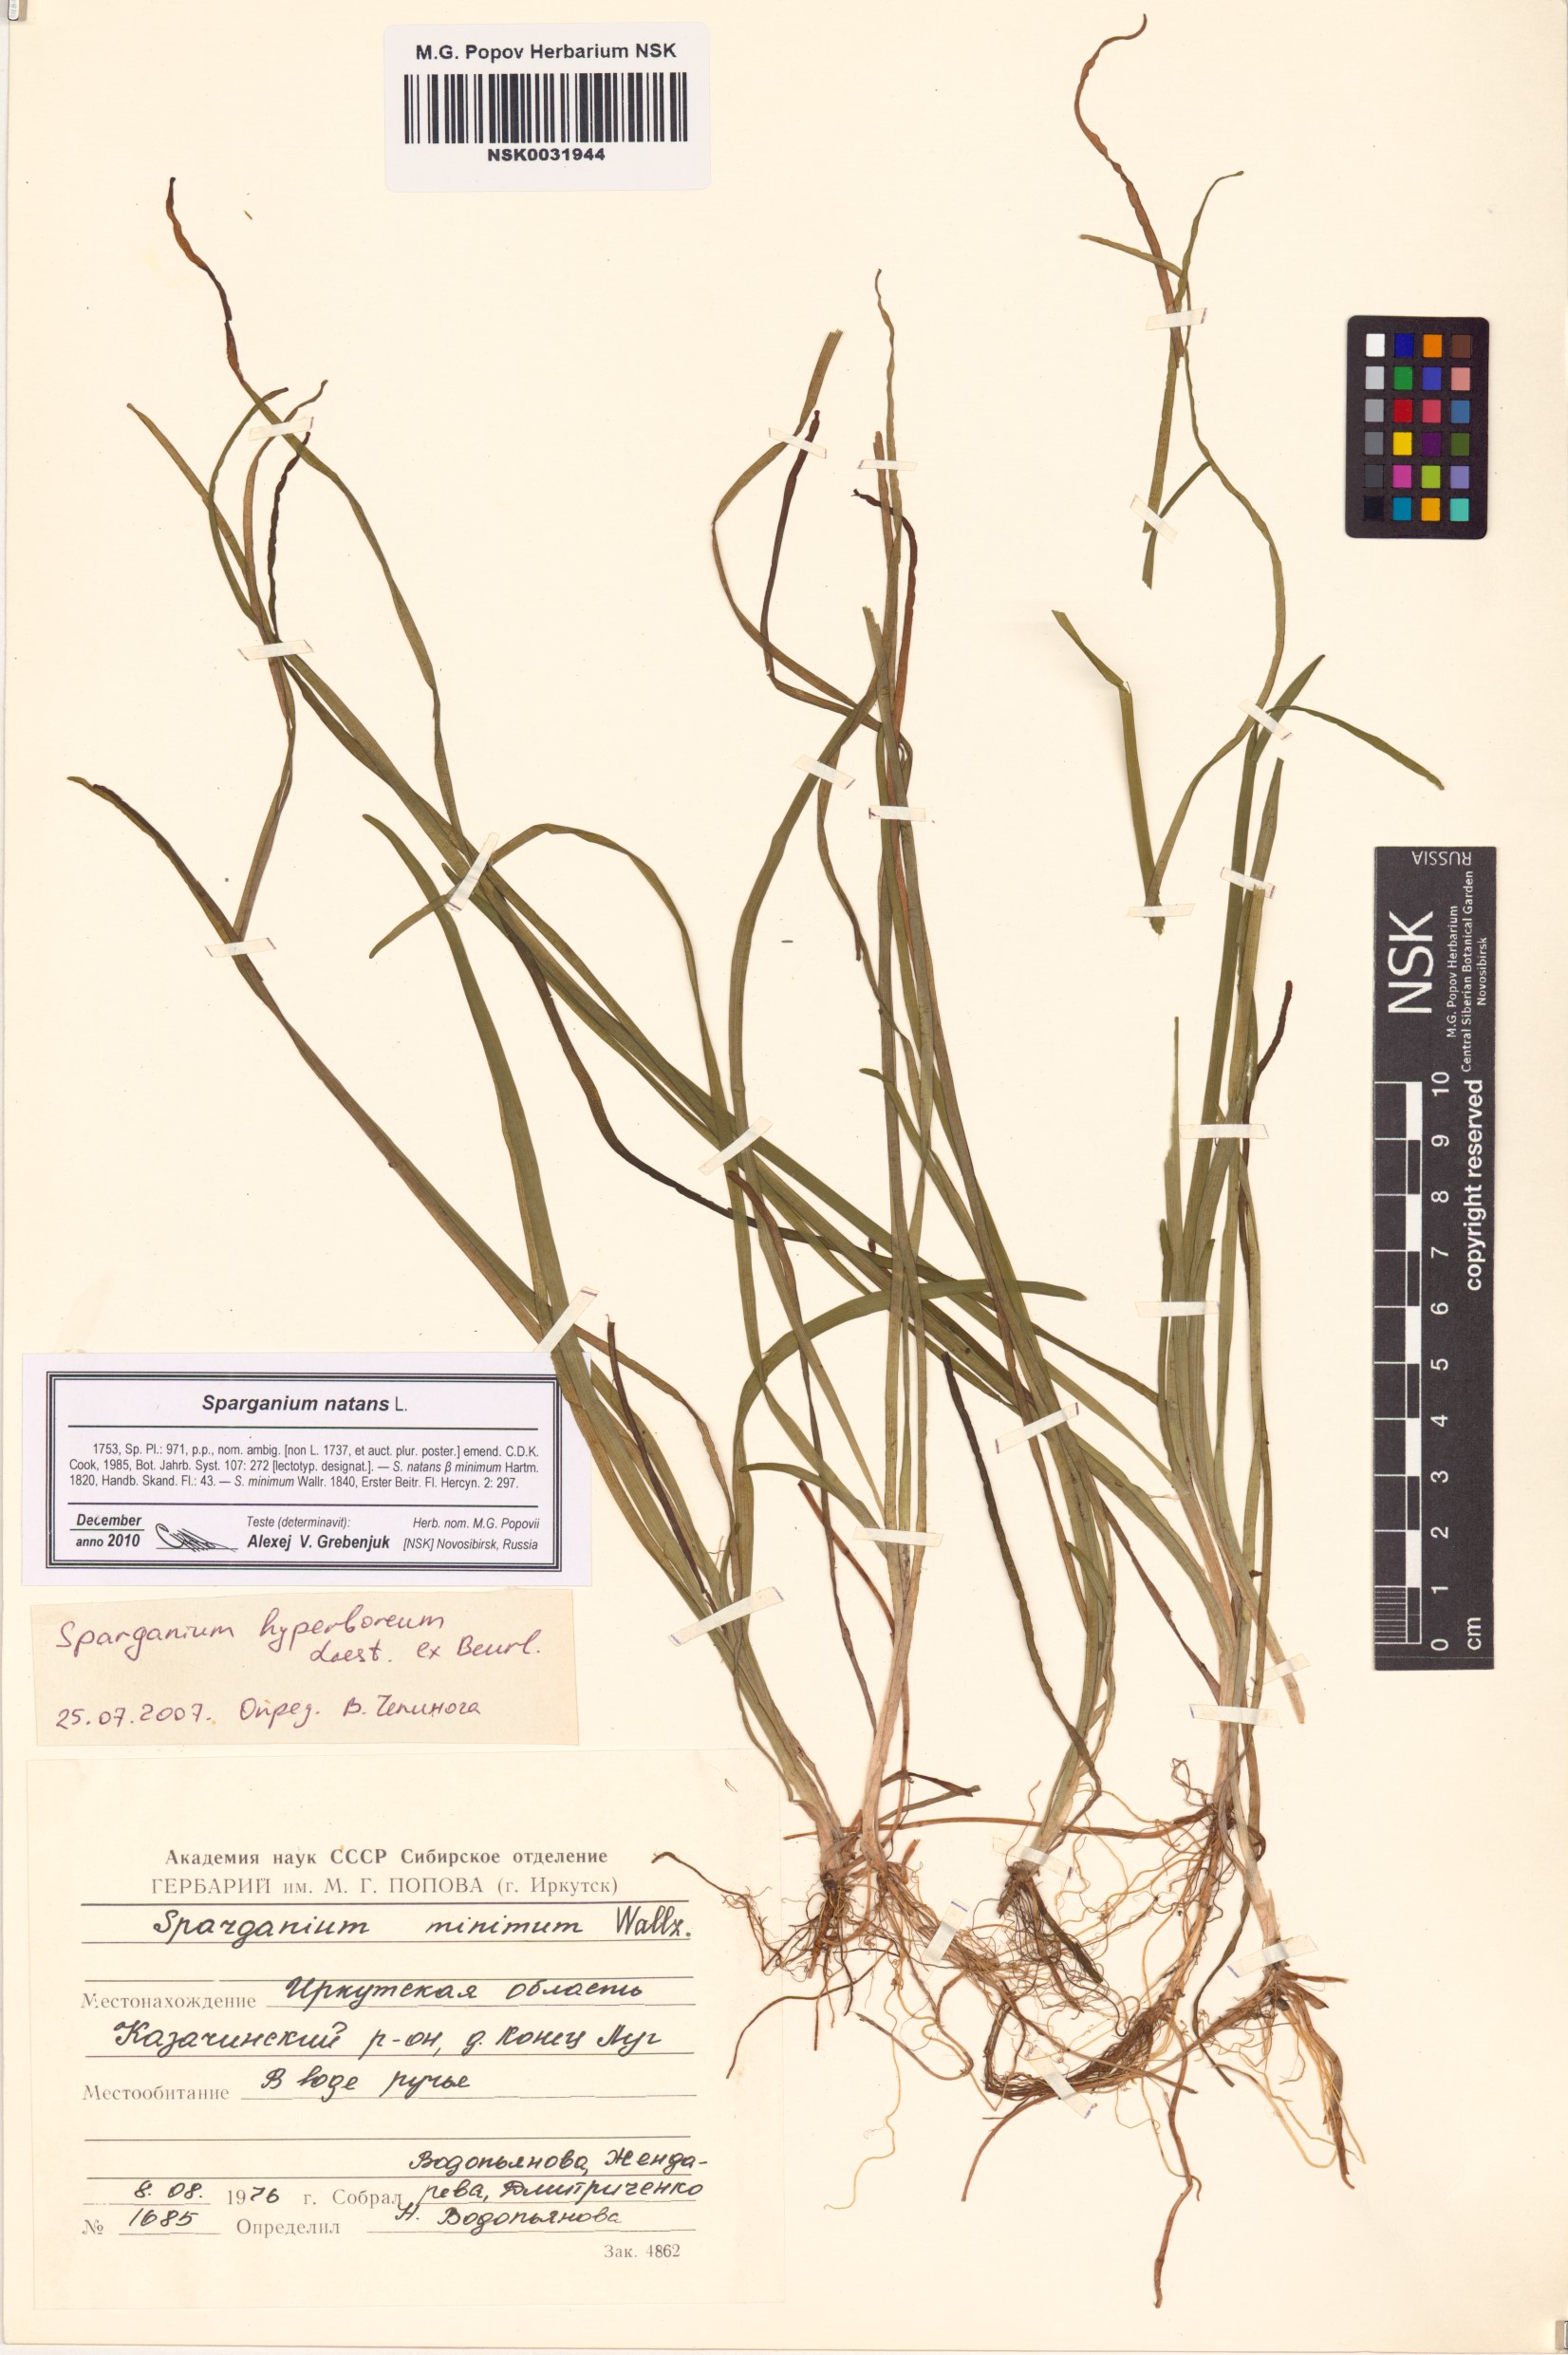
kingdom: Plantae
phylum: Tracheophyta
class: Liliopsida
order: Poales
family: Typhaceae
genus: Sparganium
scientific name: Sparganium natans
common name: Least bur-reed
